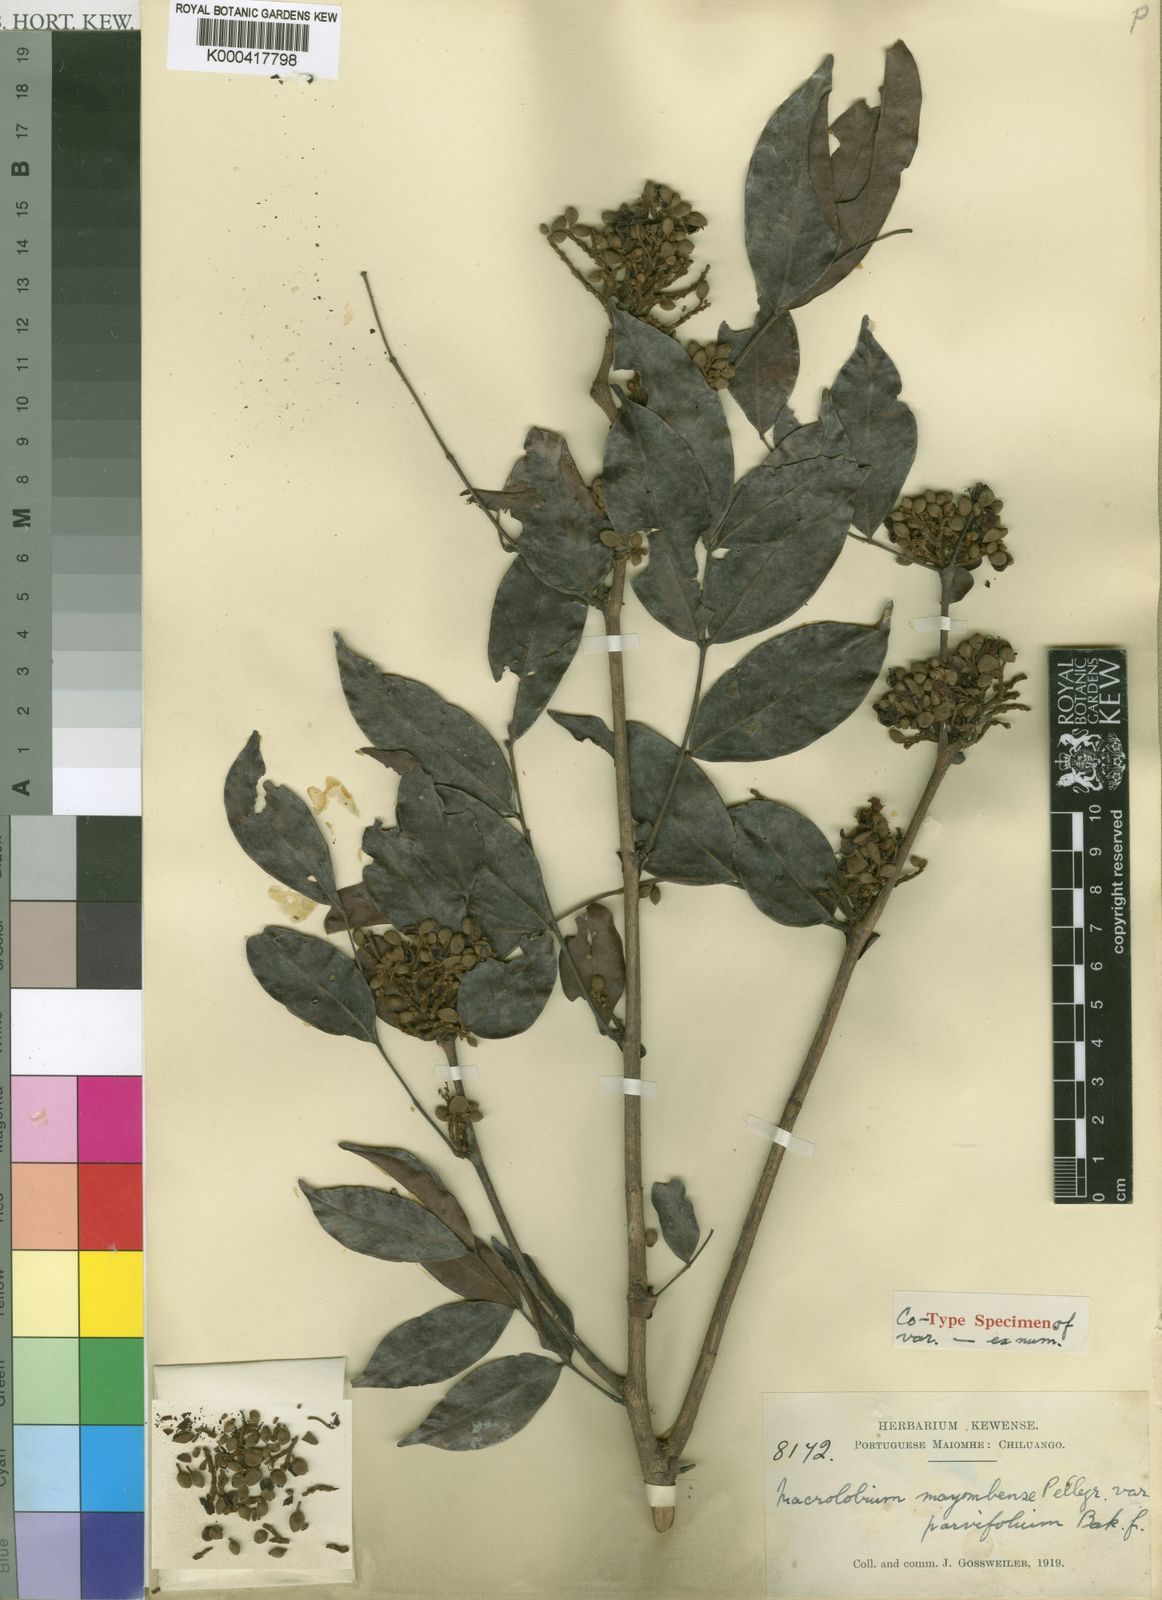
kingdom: Plantae
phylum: Tracheophyta
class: Magnoliopsida
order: Fabales
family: Fabaceae
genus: Gilbertiodendron
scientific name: Gilbertiodendron
